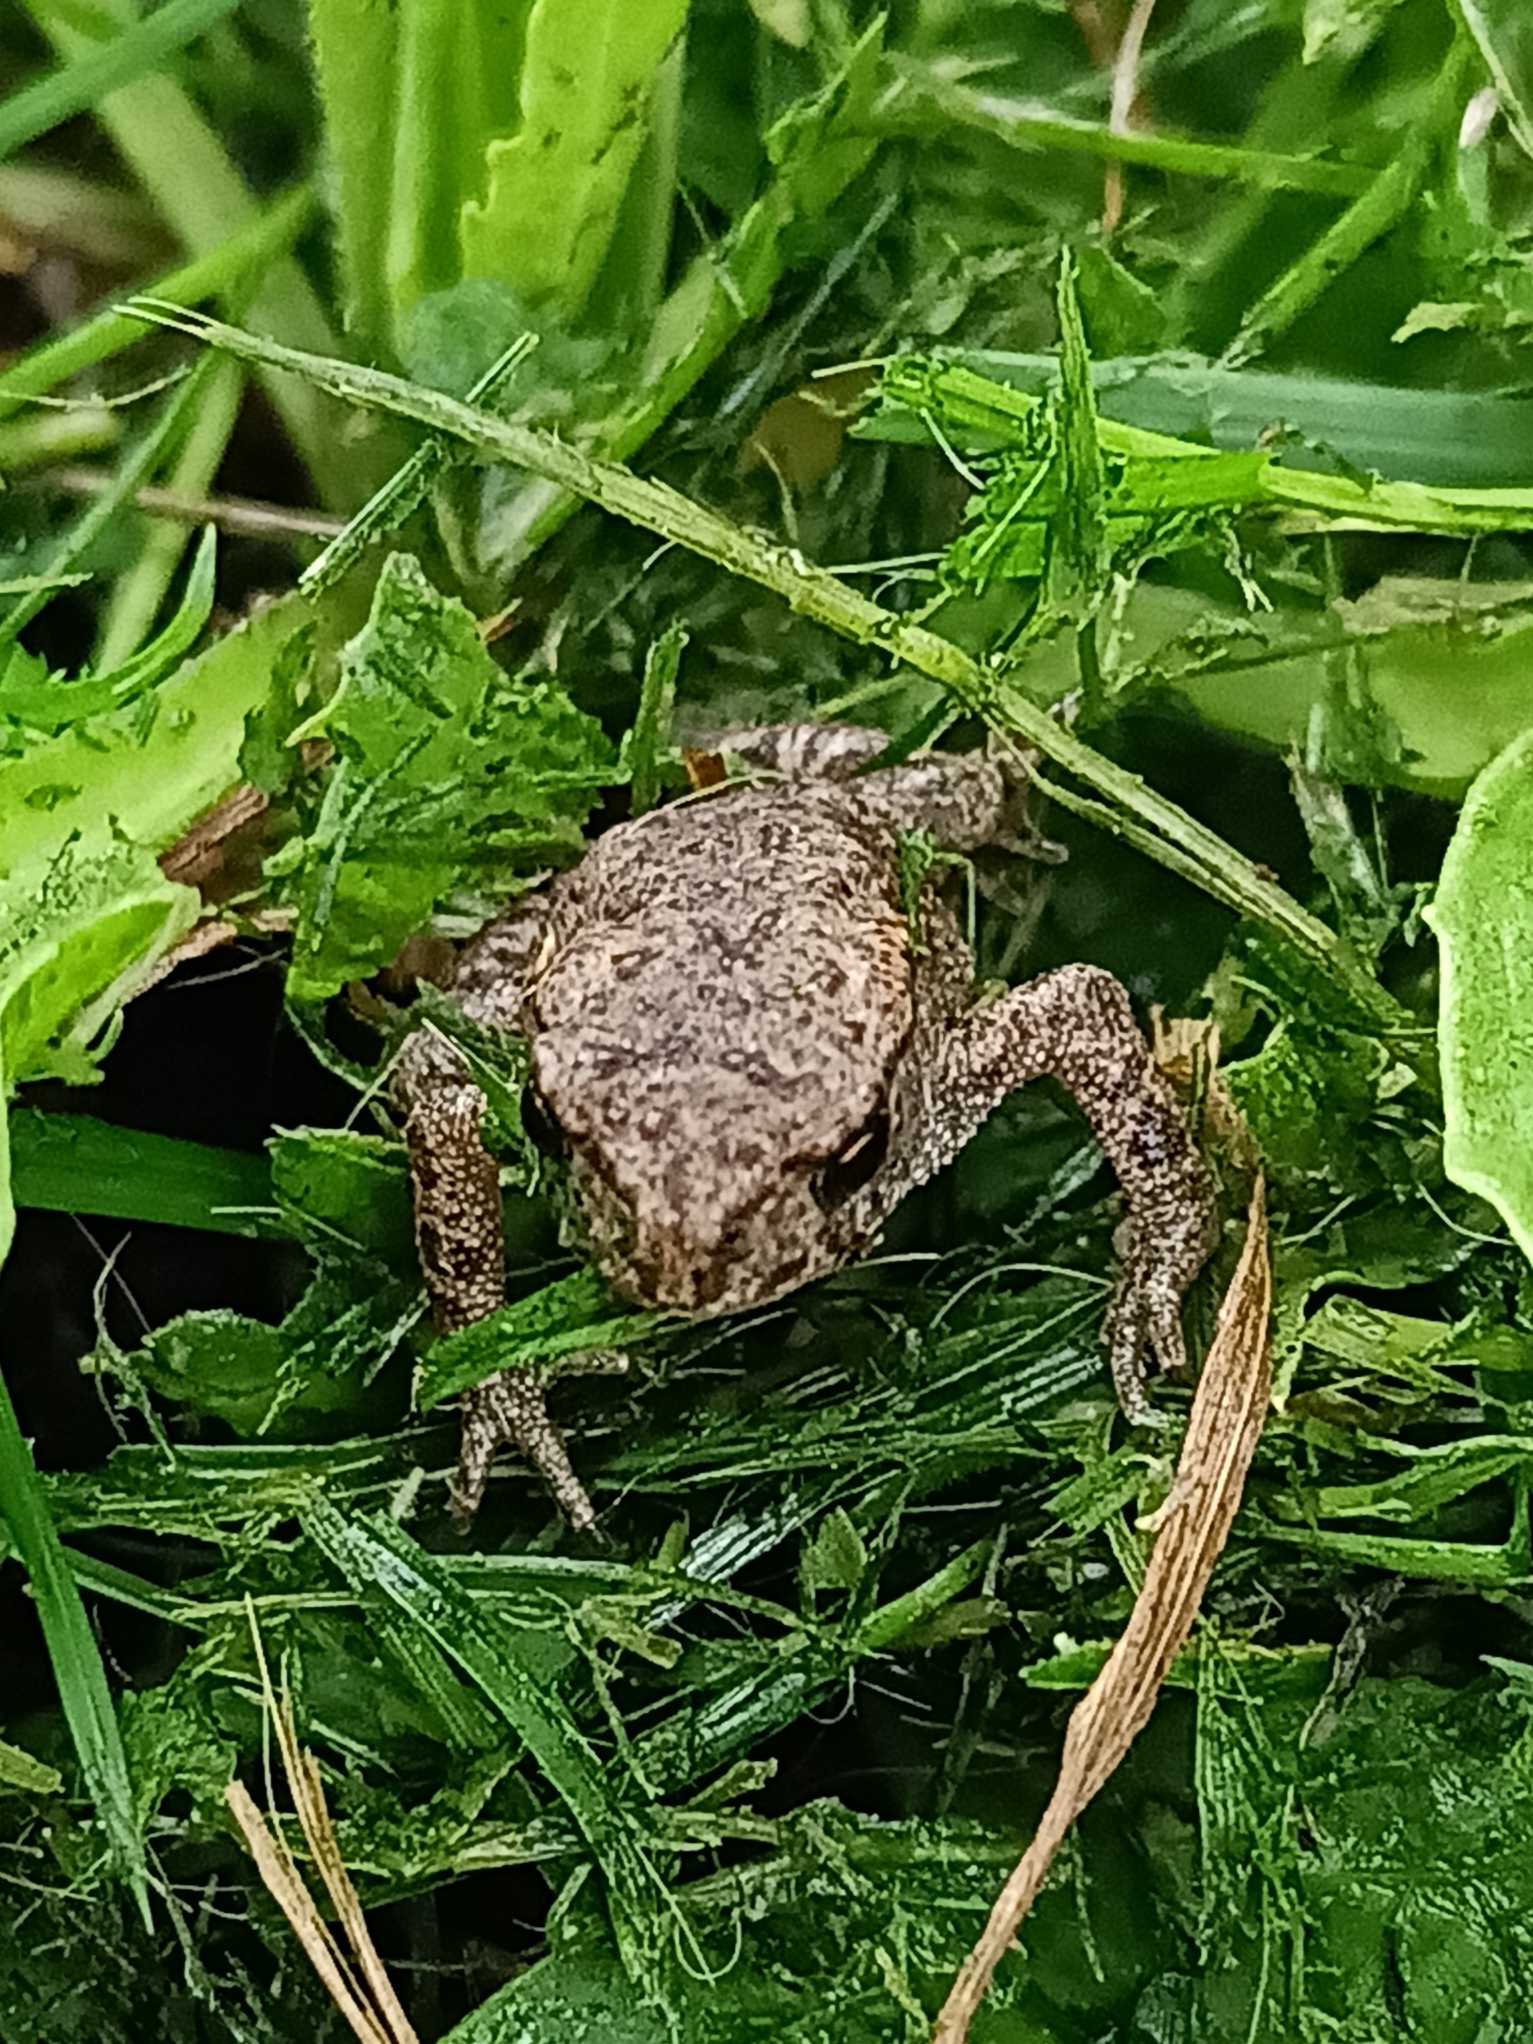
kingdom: Animalia
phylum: Chordata
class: Amphibia
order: Anura
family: Bufonidae
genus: Bufo
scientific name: Bufo bufo
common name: Skrubtudse
